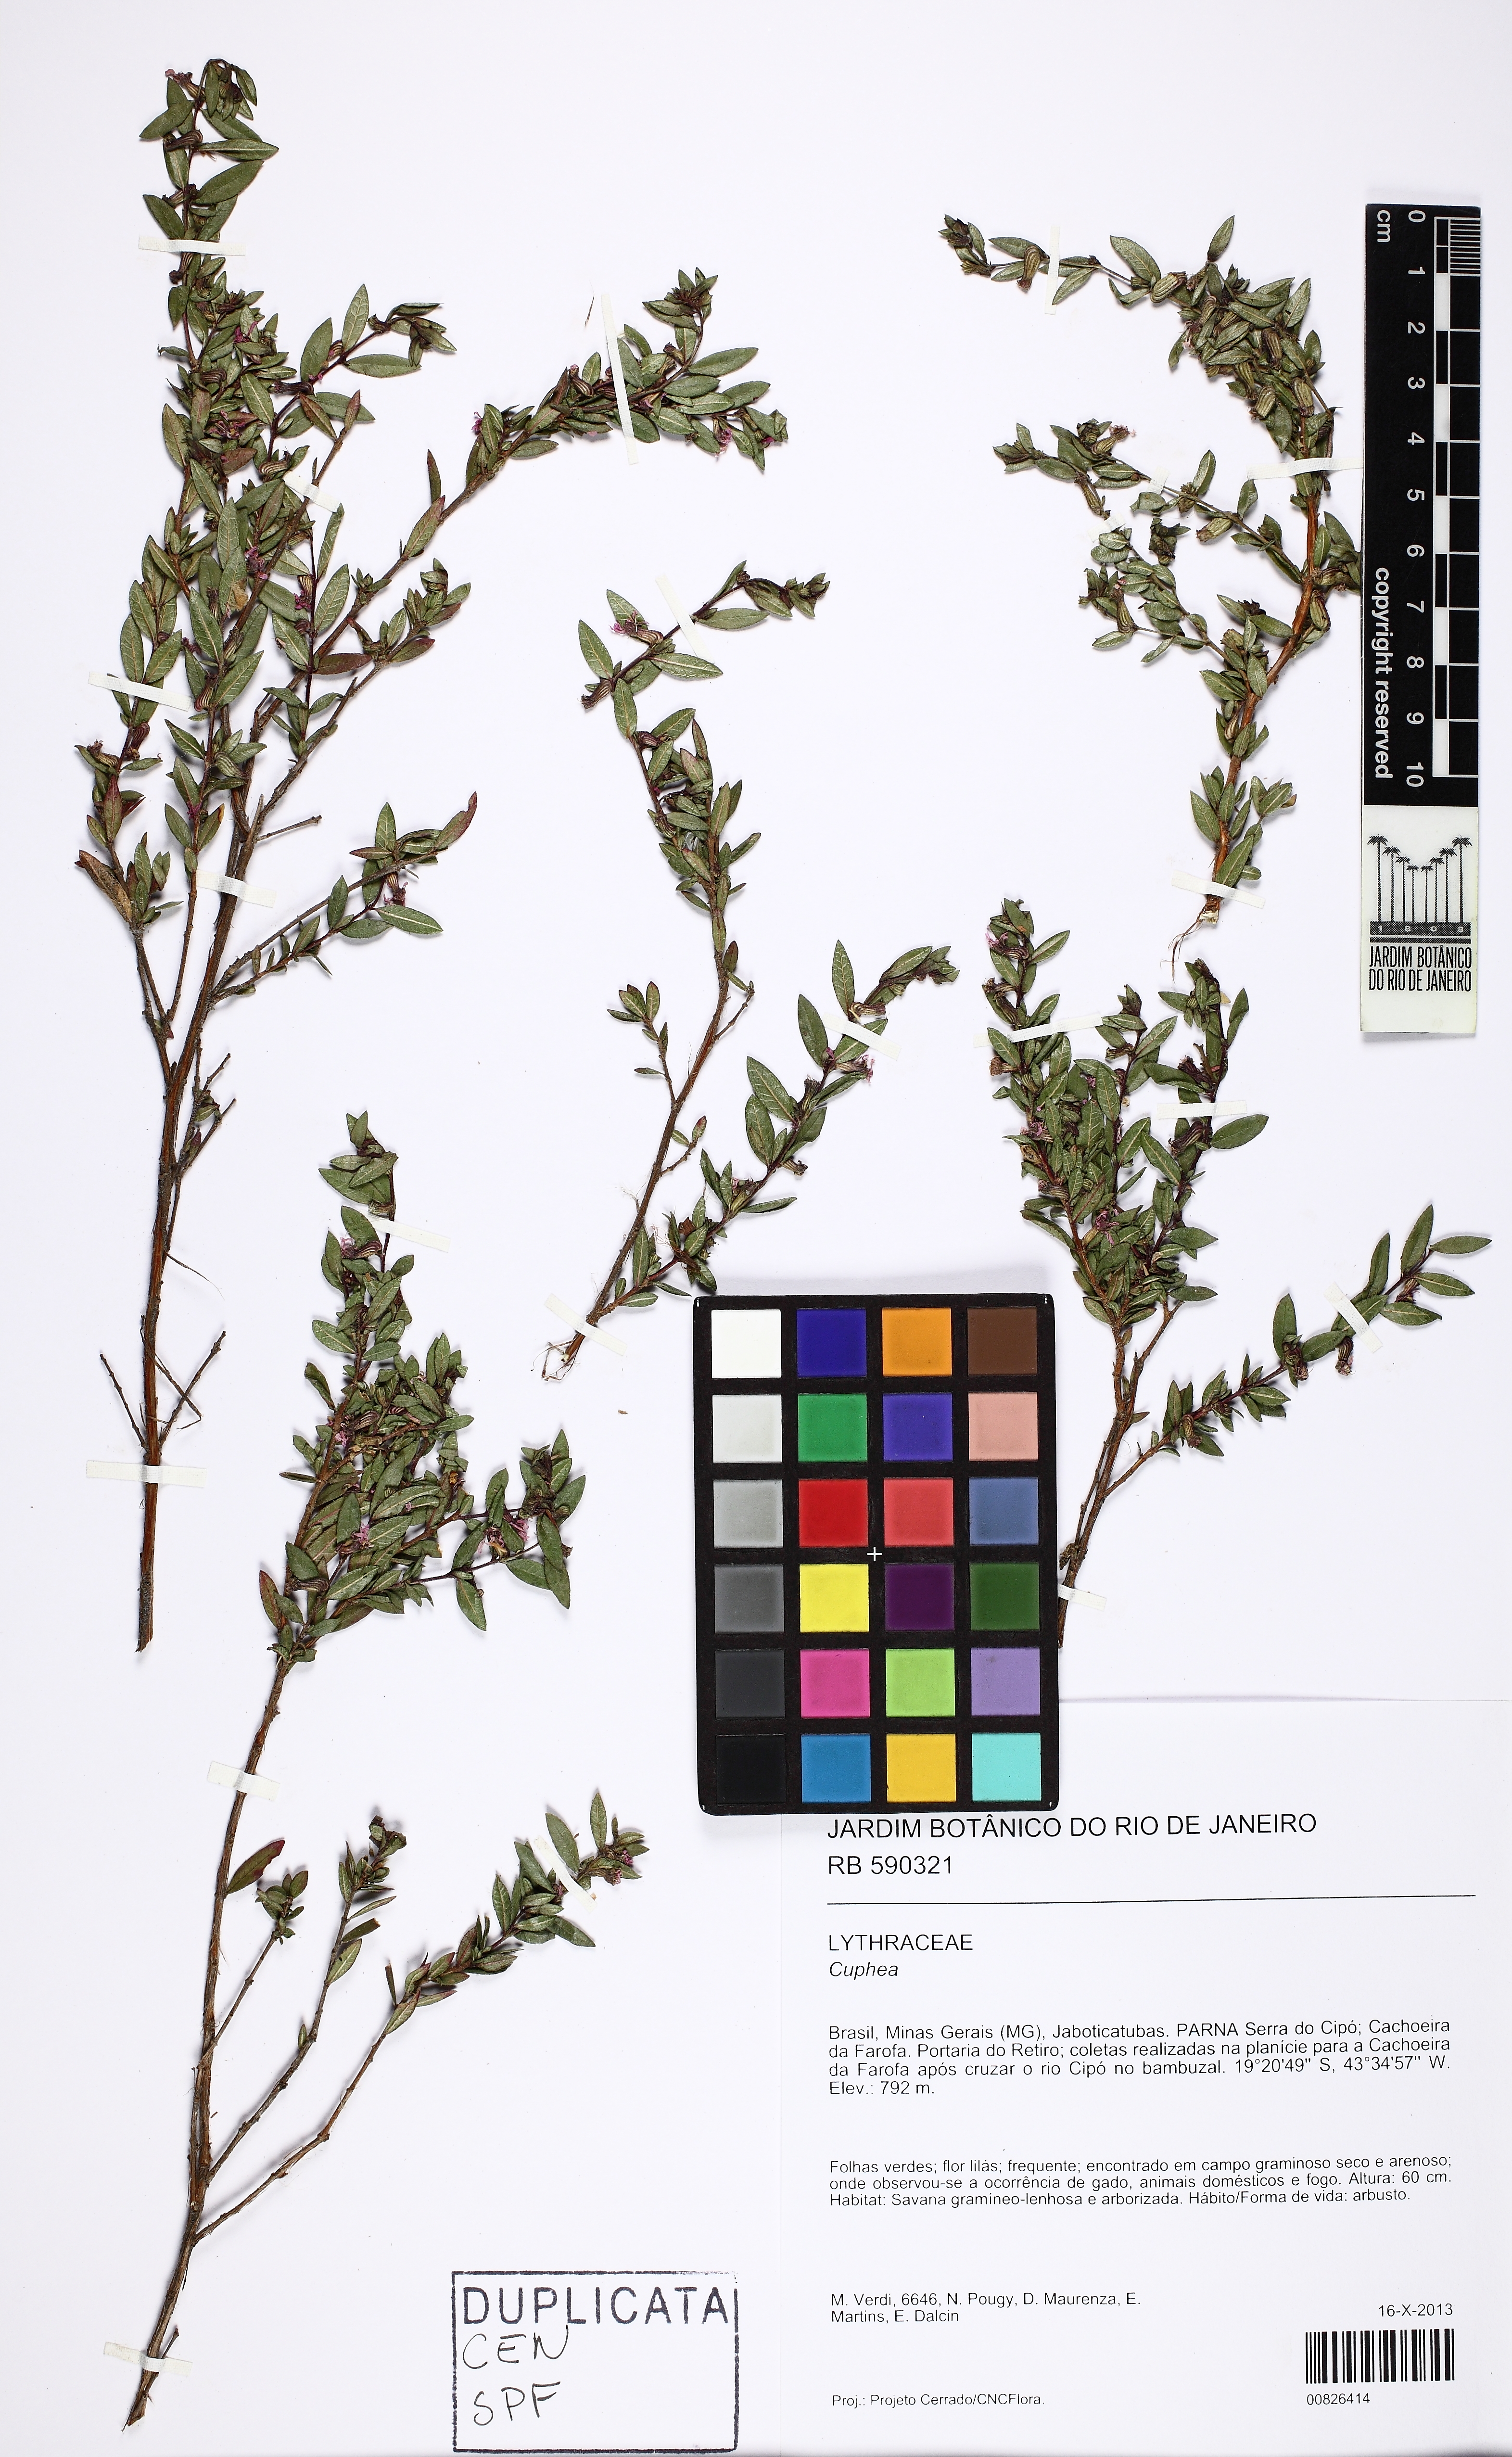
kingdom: Plantae
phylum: Tracheophyta
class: Magnoliopsida
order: Myrtales
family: Lythraceae
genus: Cuphea
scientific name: Cuphea pseudovaccinium
